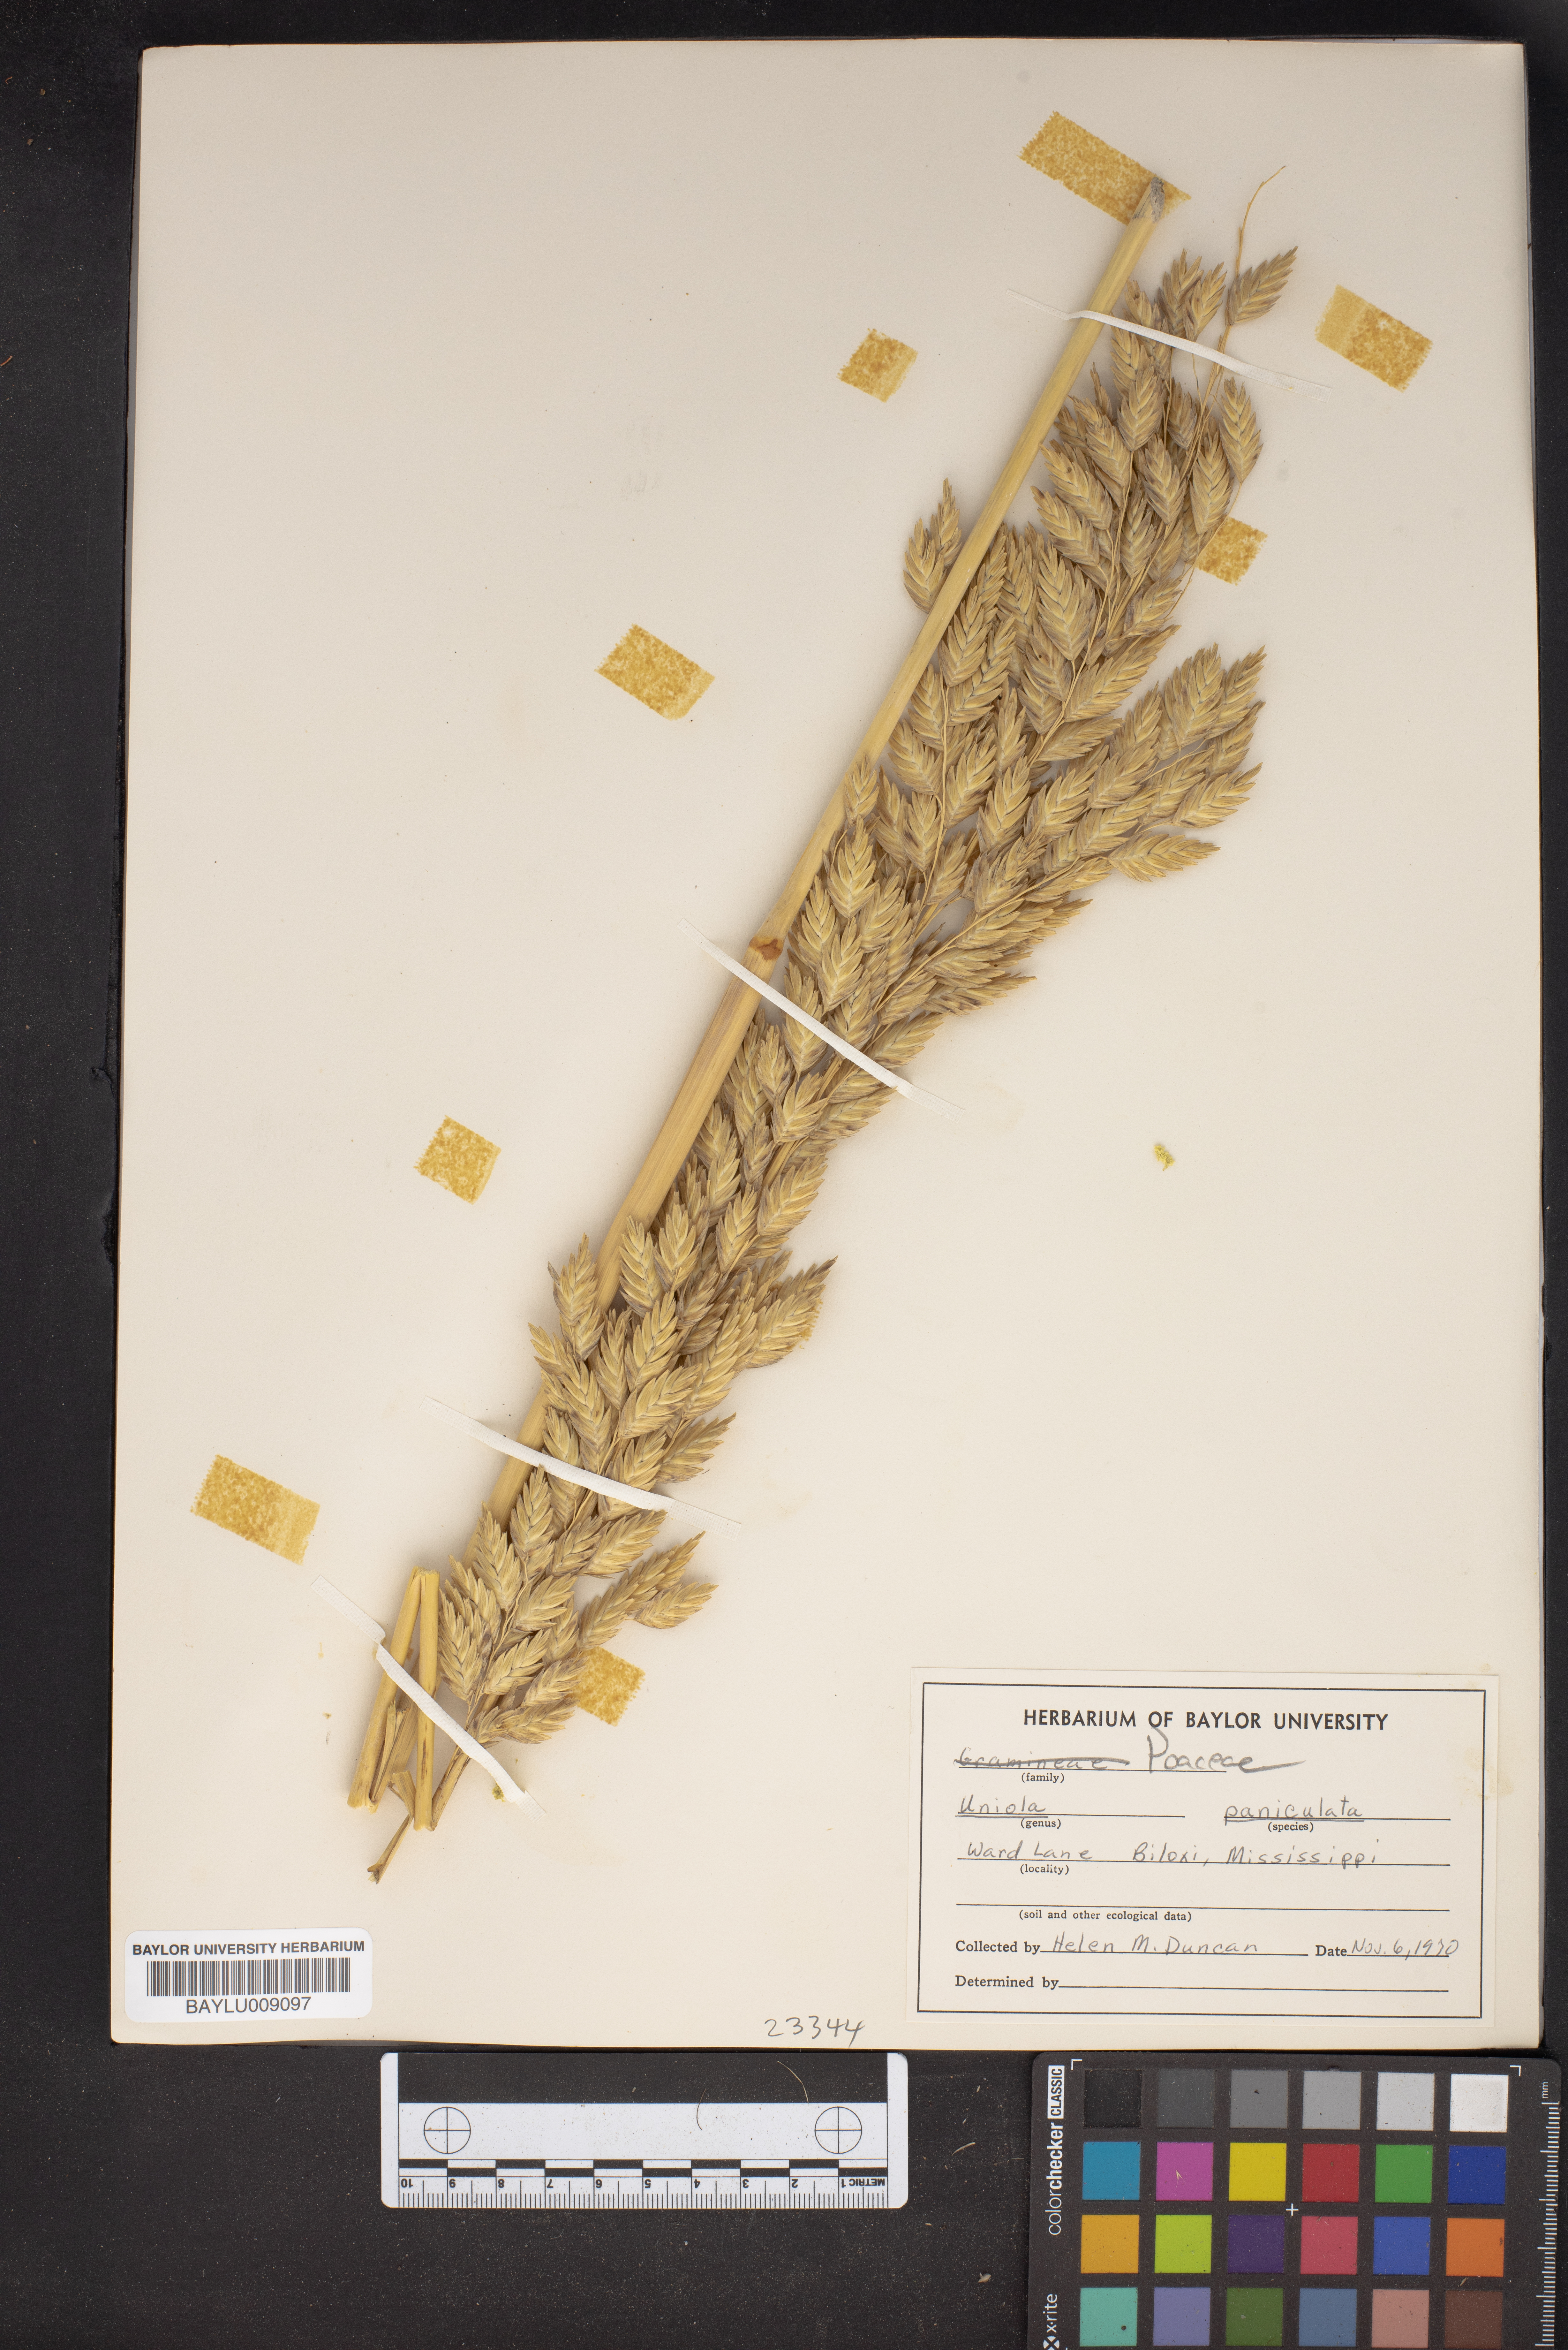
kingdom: Plantae
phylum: Tracheophyta
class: Liliopsida
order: Poales
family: Poaceae
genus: Uniola
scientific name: Uniola paniculata
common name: Seaside-oats
